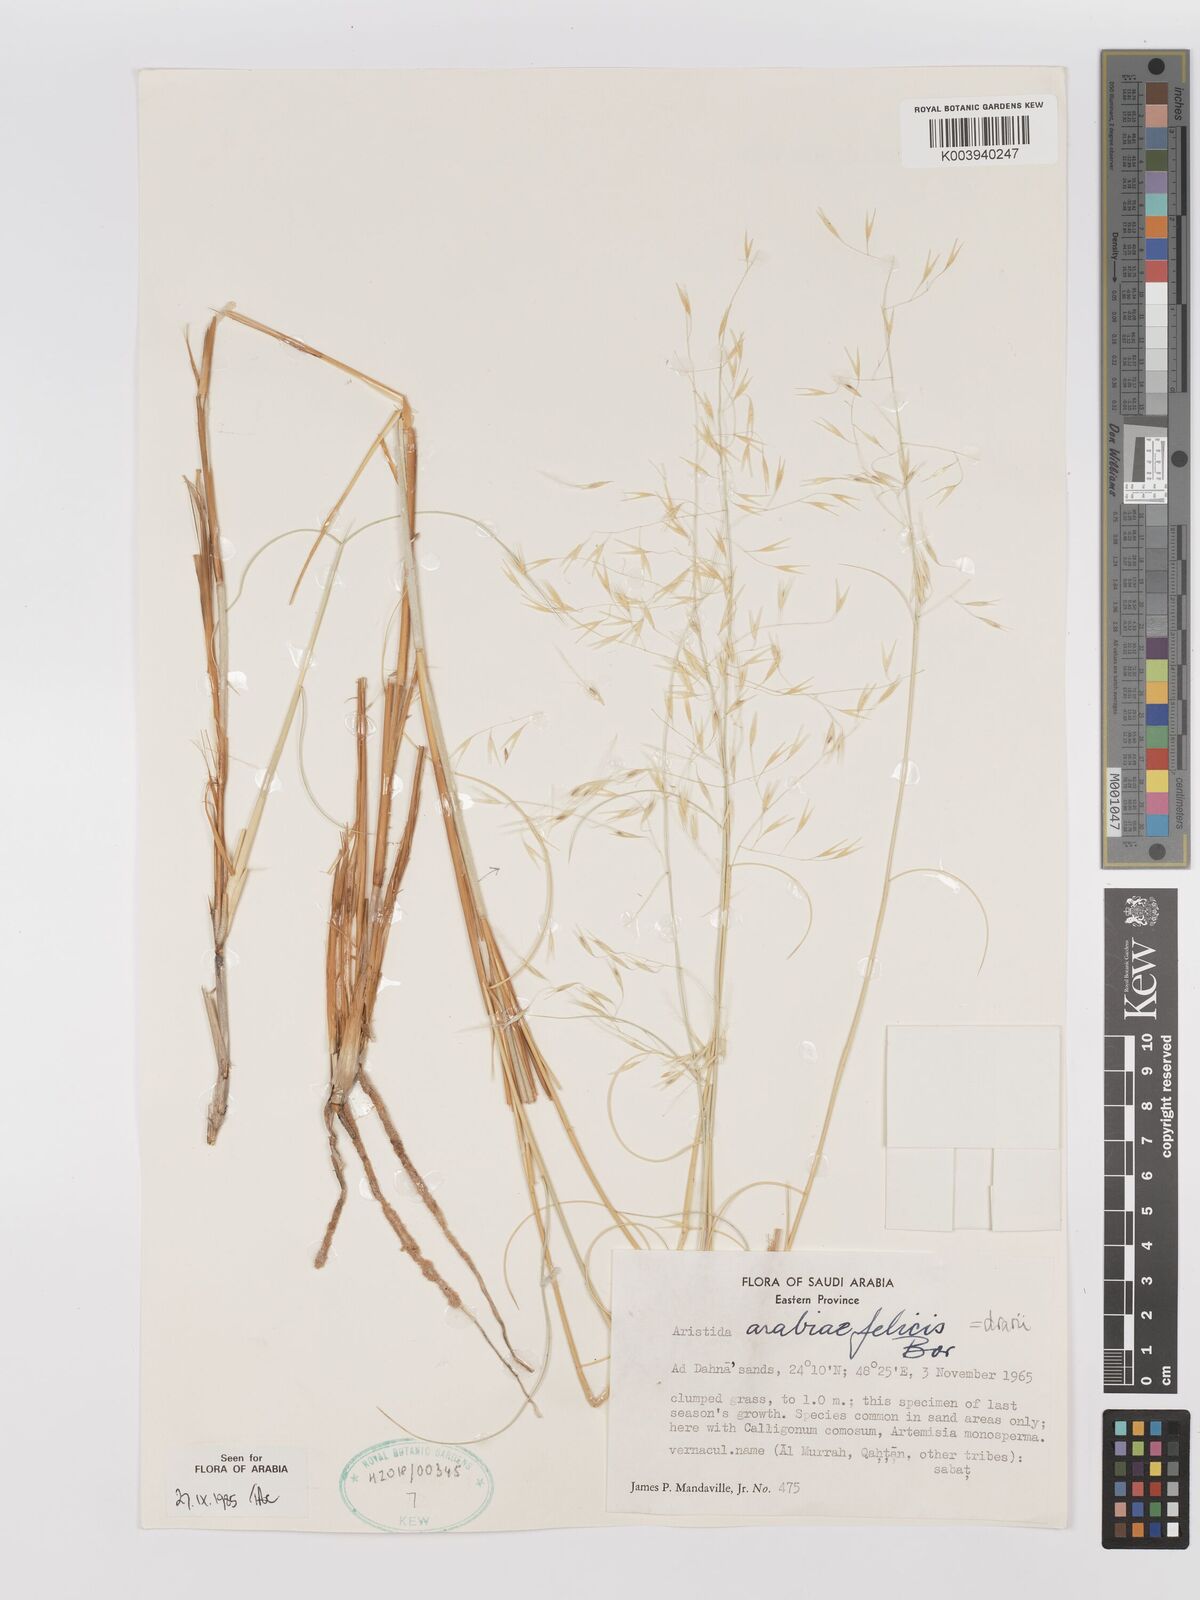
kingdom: Plantae
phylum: Tracheophyta
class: Liliopsida
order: Poales
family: Poaceae
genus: Stipagrostis
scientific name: Stipagrostis drarii
